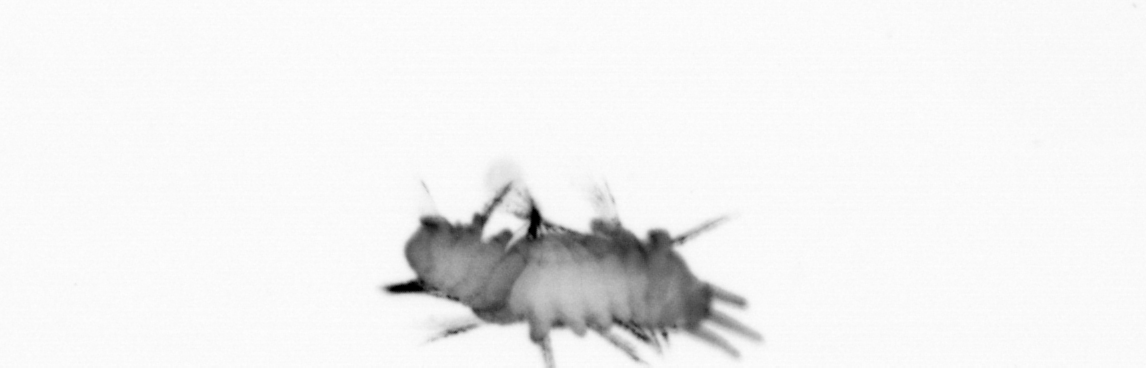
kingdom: Animalia
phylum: Annelida
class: Polychaeta
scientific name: Polychaeta
